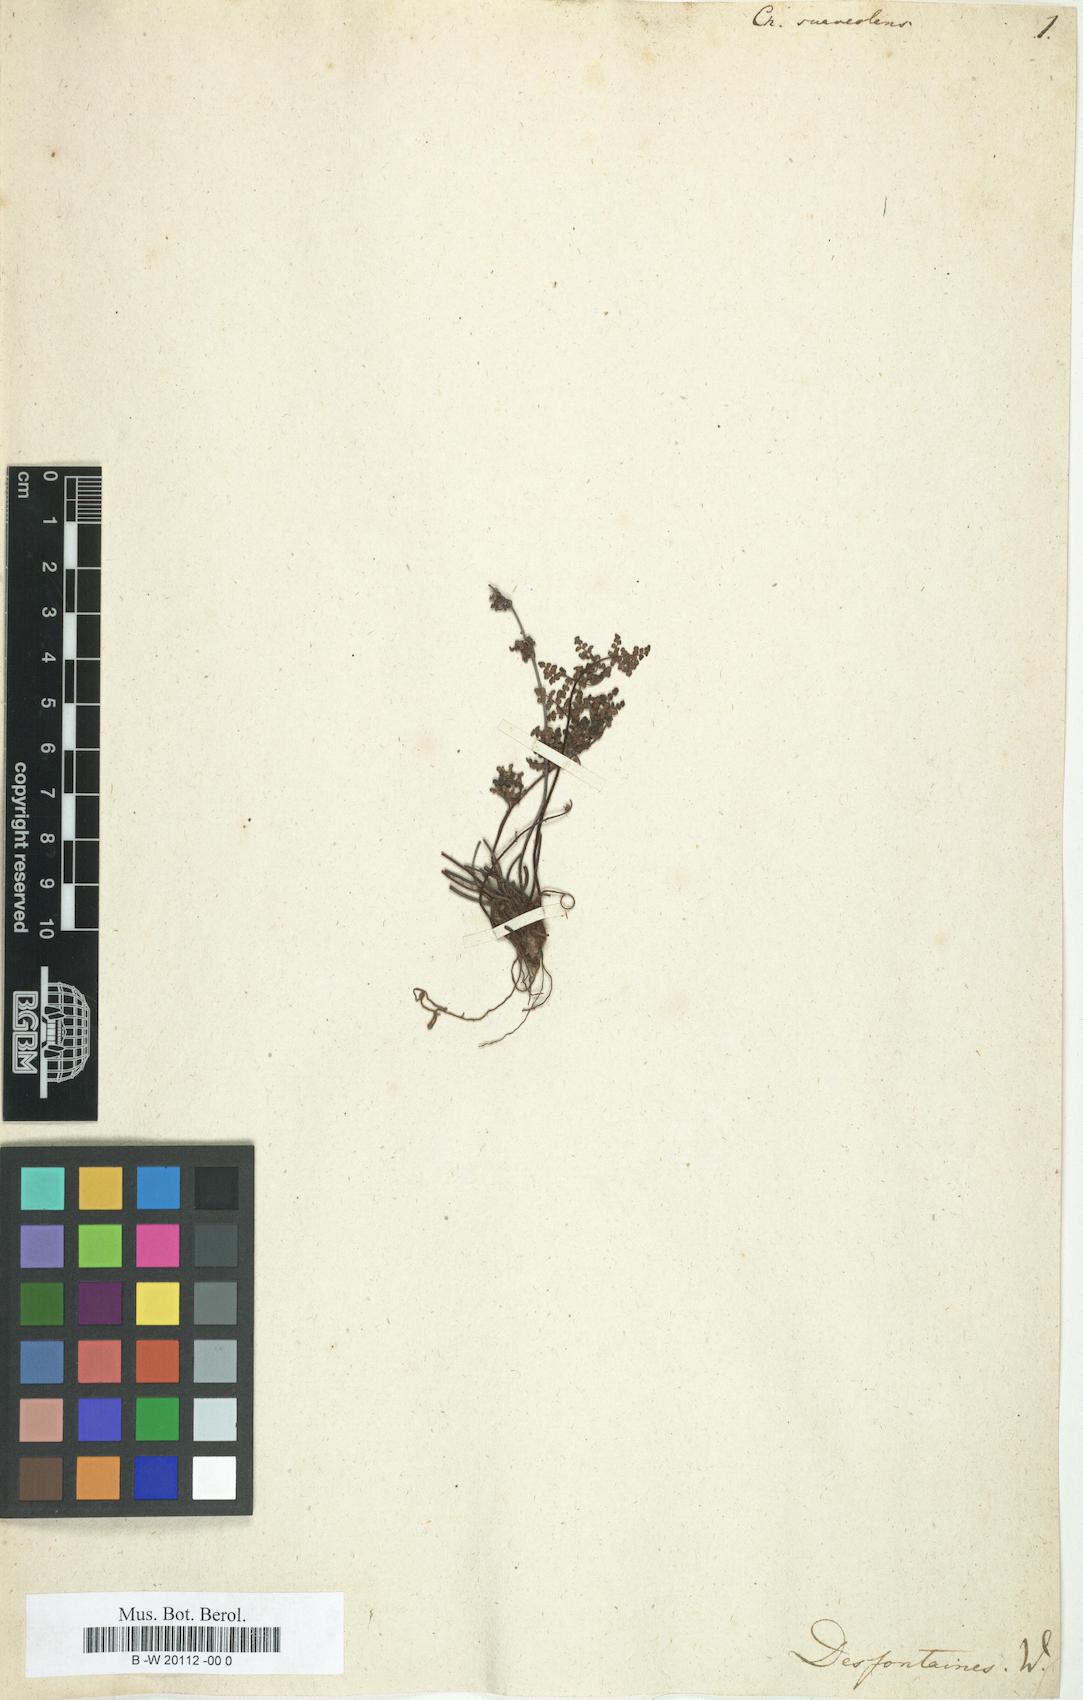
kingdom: Plantae
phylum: Tracheophyta
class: Polypodiopsida
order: Polypodiales
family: Pteridaceae
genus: Oeosporangium
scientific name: Oeosporangium pteridioides
